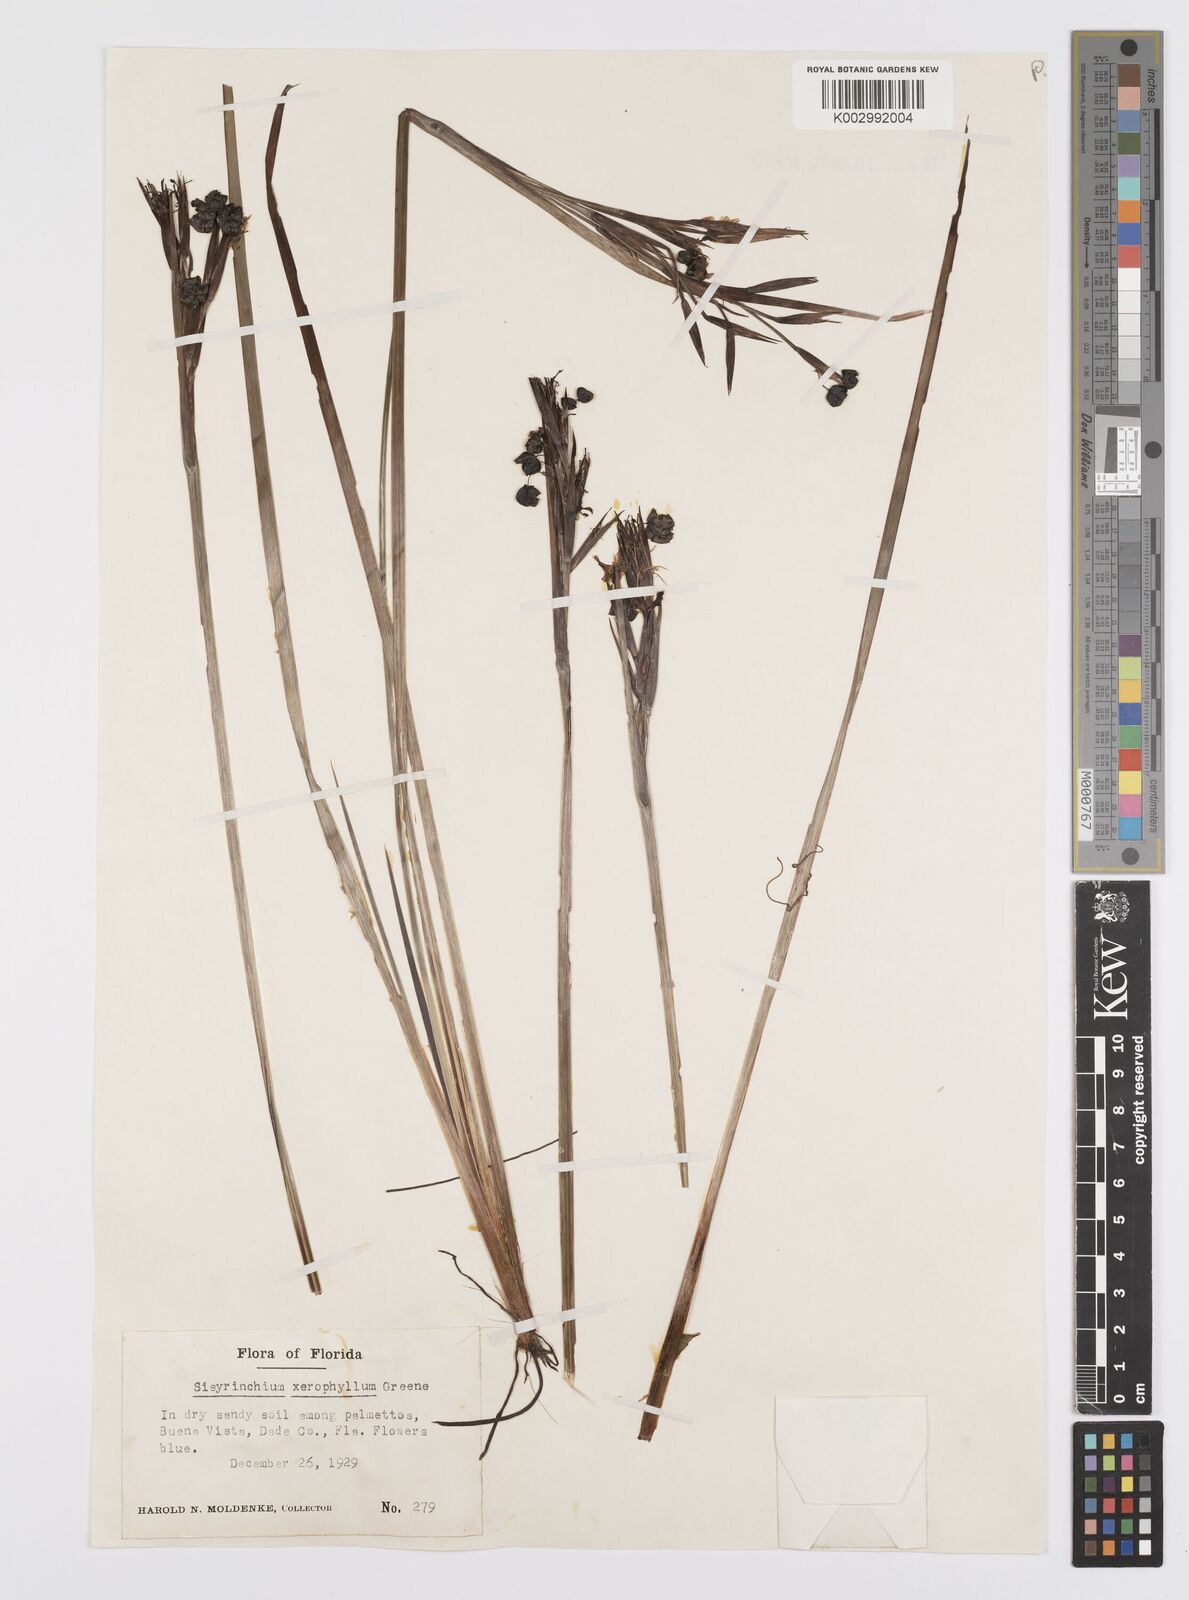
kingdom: Plantae
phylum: Tracheophyta
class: Liliopsida
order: Asparagales
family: Iridaceae
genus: Sisyrinchium
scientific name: Sisyrinchium xerophyllum
